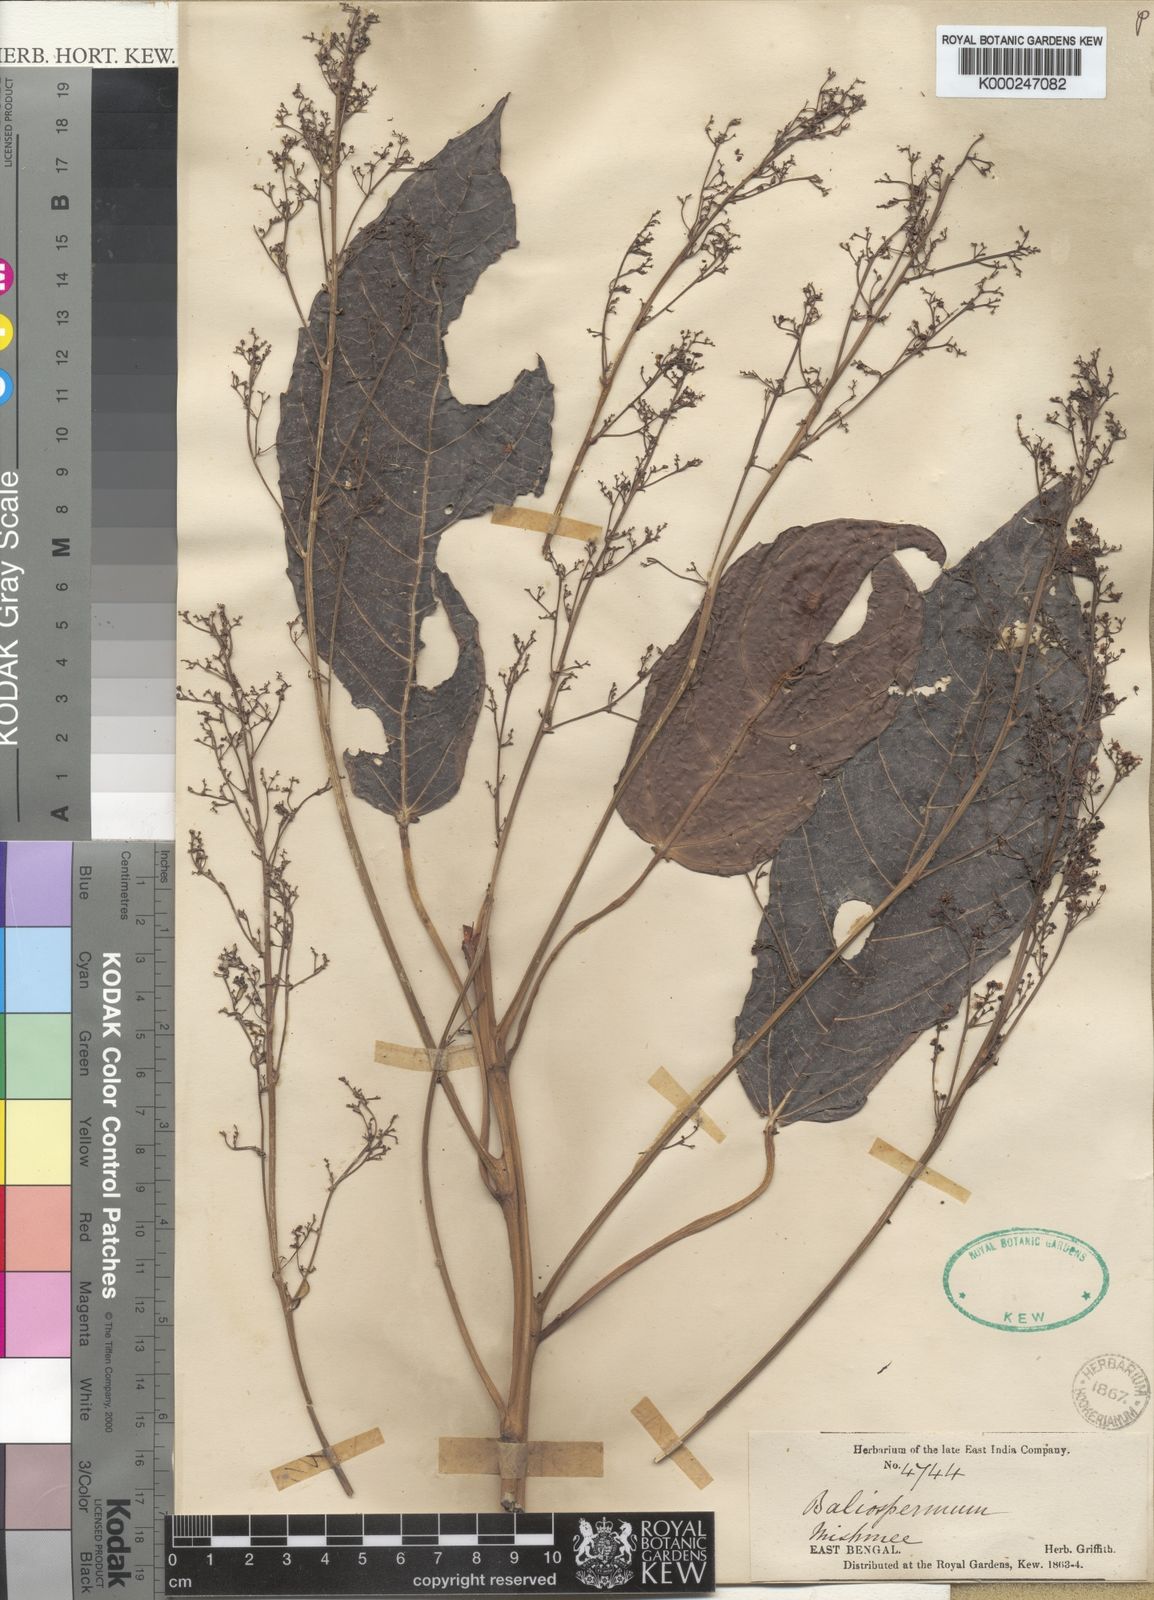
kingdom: Plantae
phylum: Tracheophyta
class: Magnoliopsida
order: Malpighiales
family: Euphorbiaceae
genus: Baliospermum
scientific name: Baliospermum
